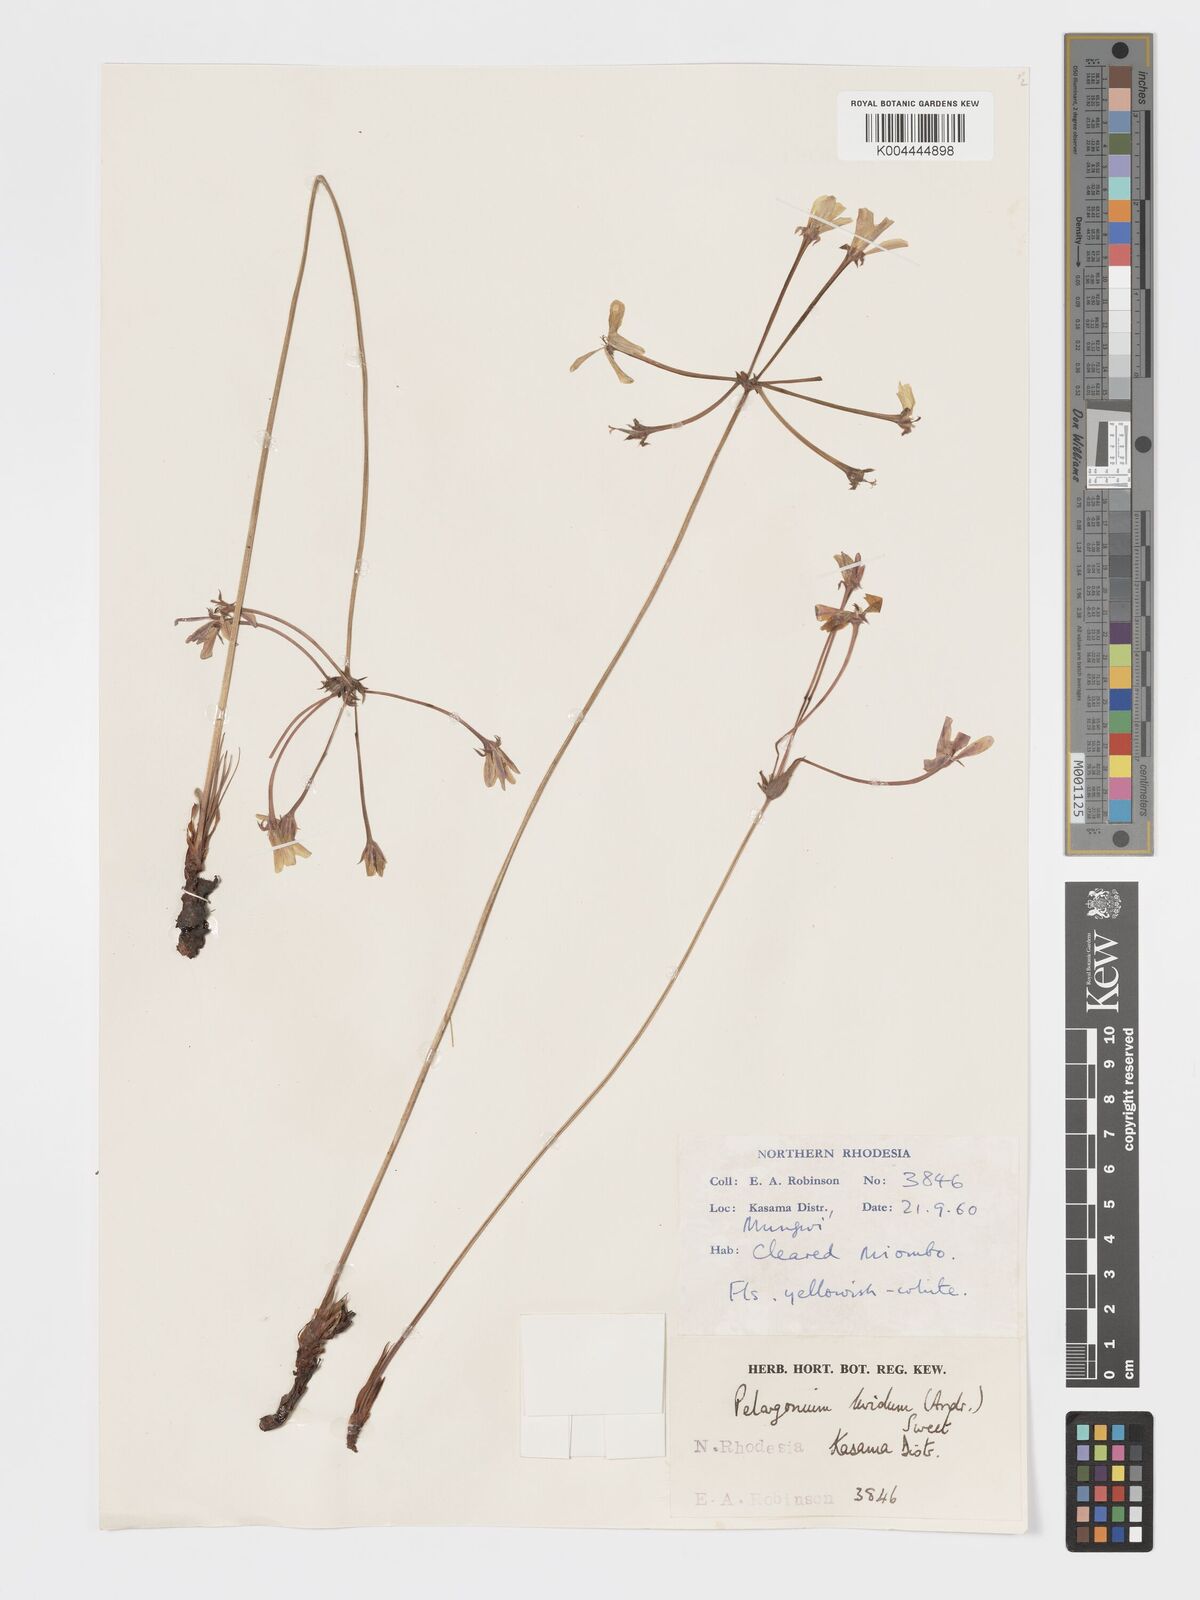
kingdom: Plantae
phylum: Tracheophyta
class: Magnoliopsida
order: Geraniales
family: Geraniaceae
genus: Pelargonium
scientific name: Pelargonium luridum
